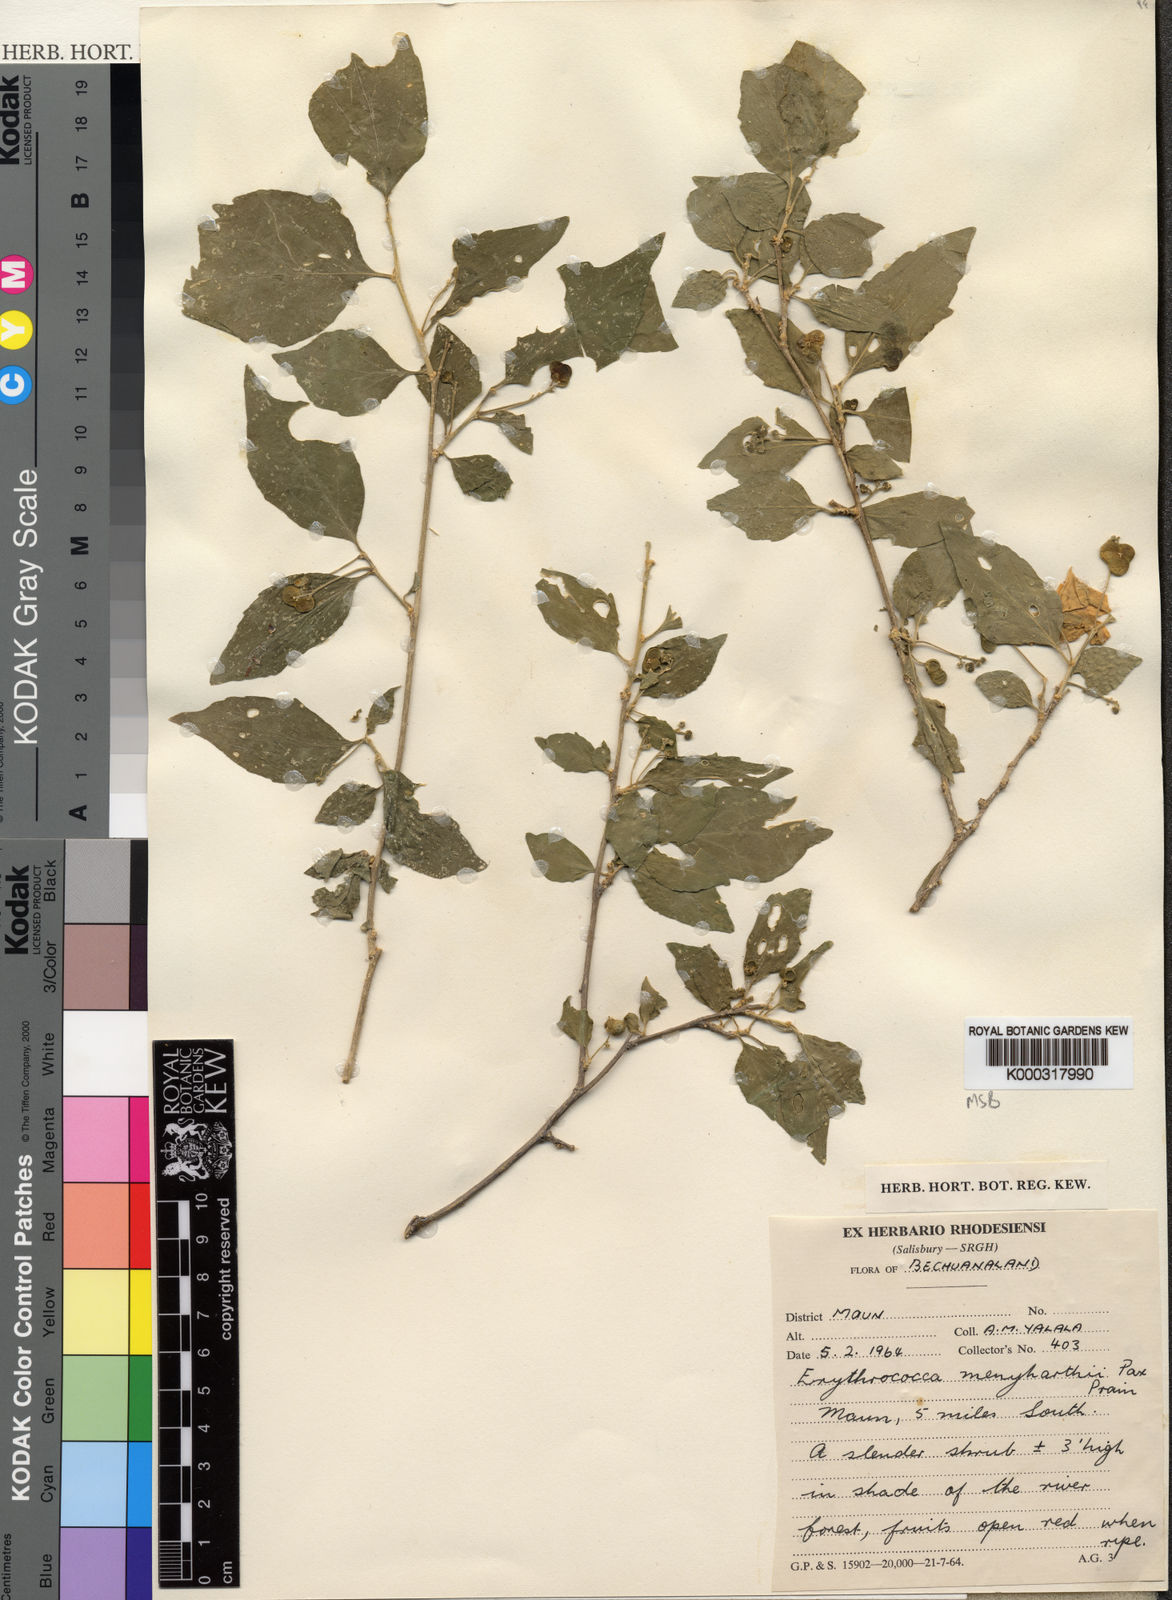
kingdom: Plantae
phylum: Tracheophyta
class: Magnoliopsida
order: Malpighiales
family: Euphorbiaceae
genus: Erythrococca
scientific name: Erythrococca menyharthii
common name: Northern red-berry
